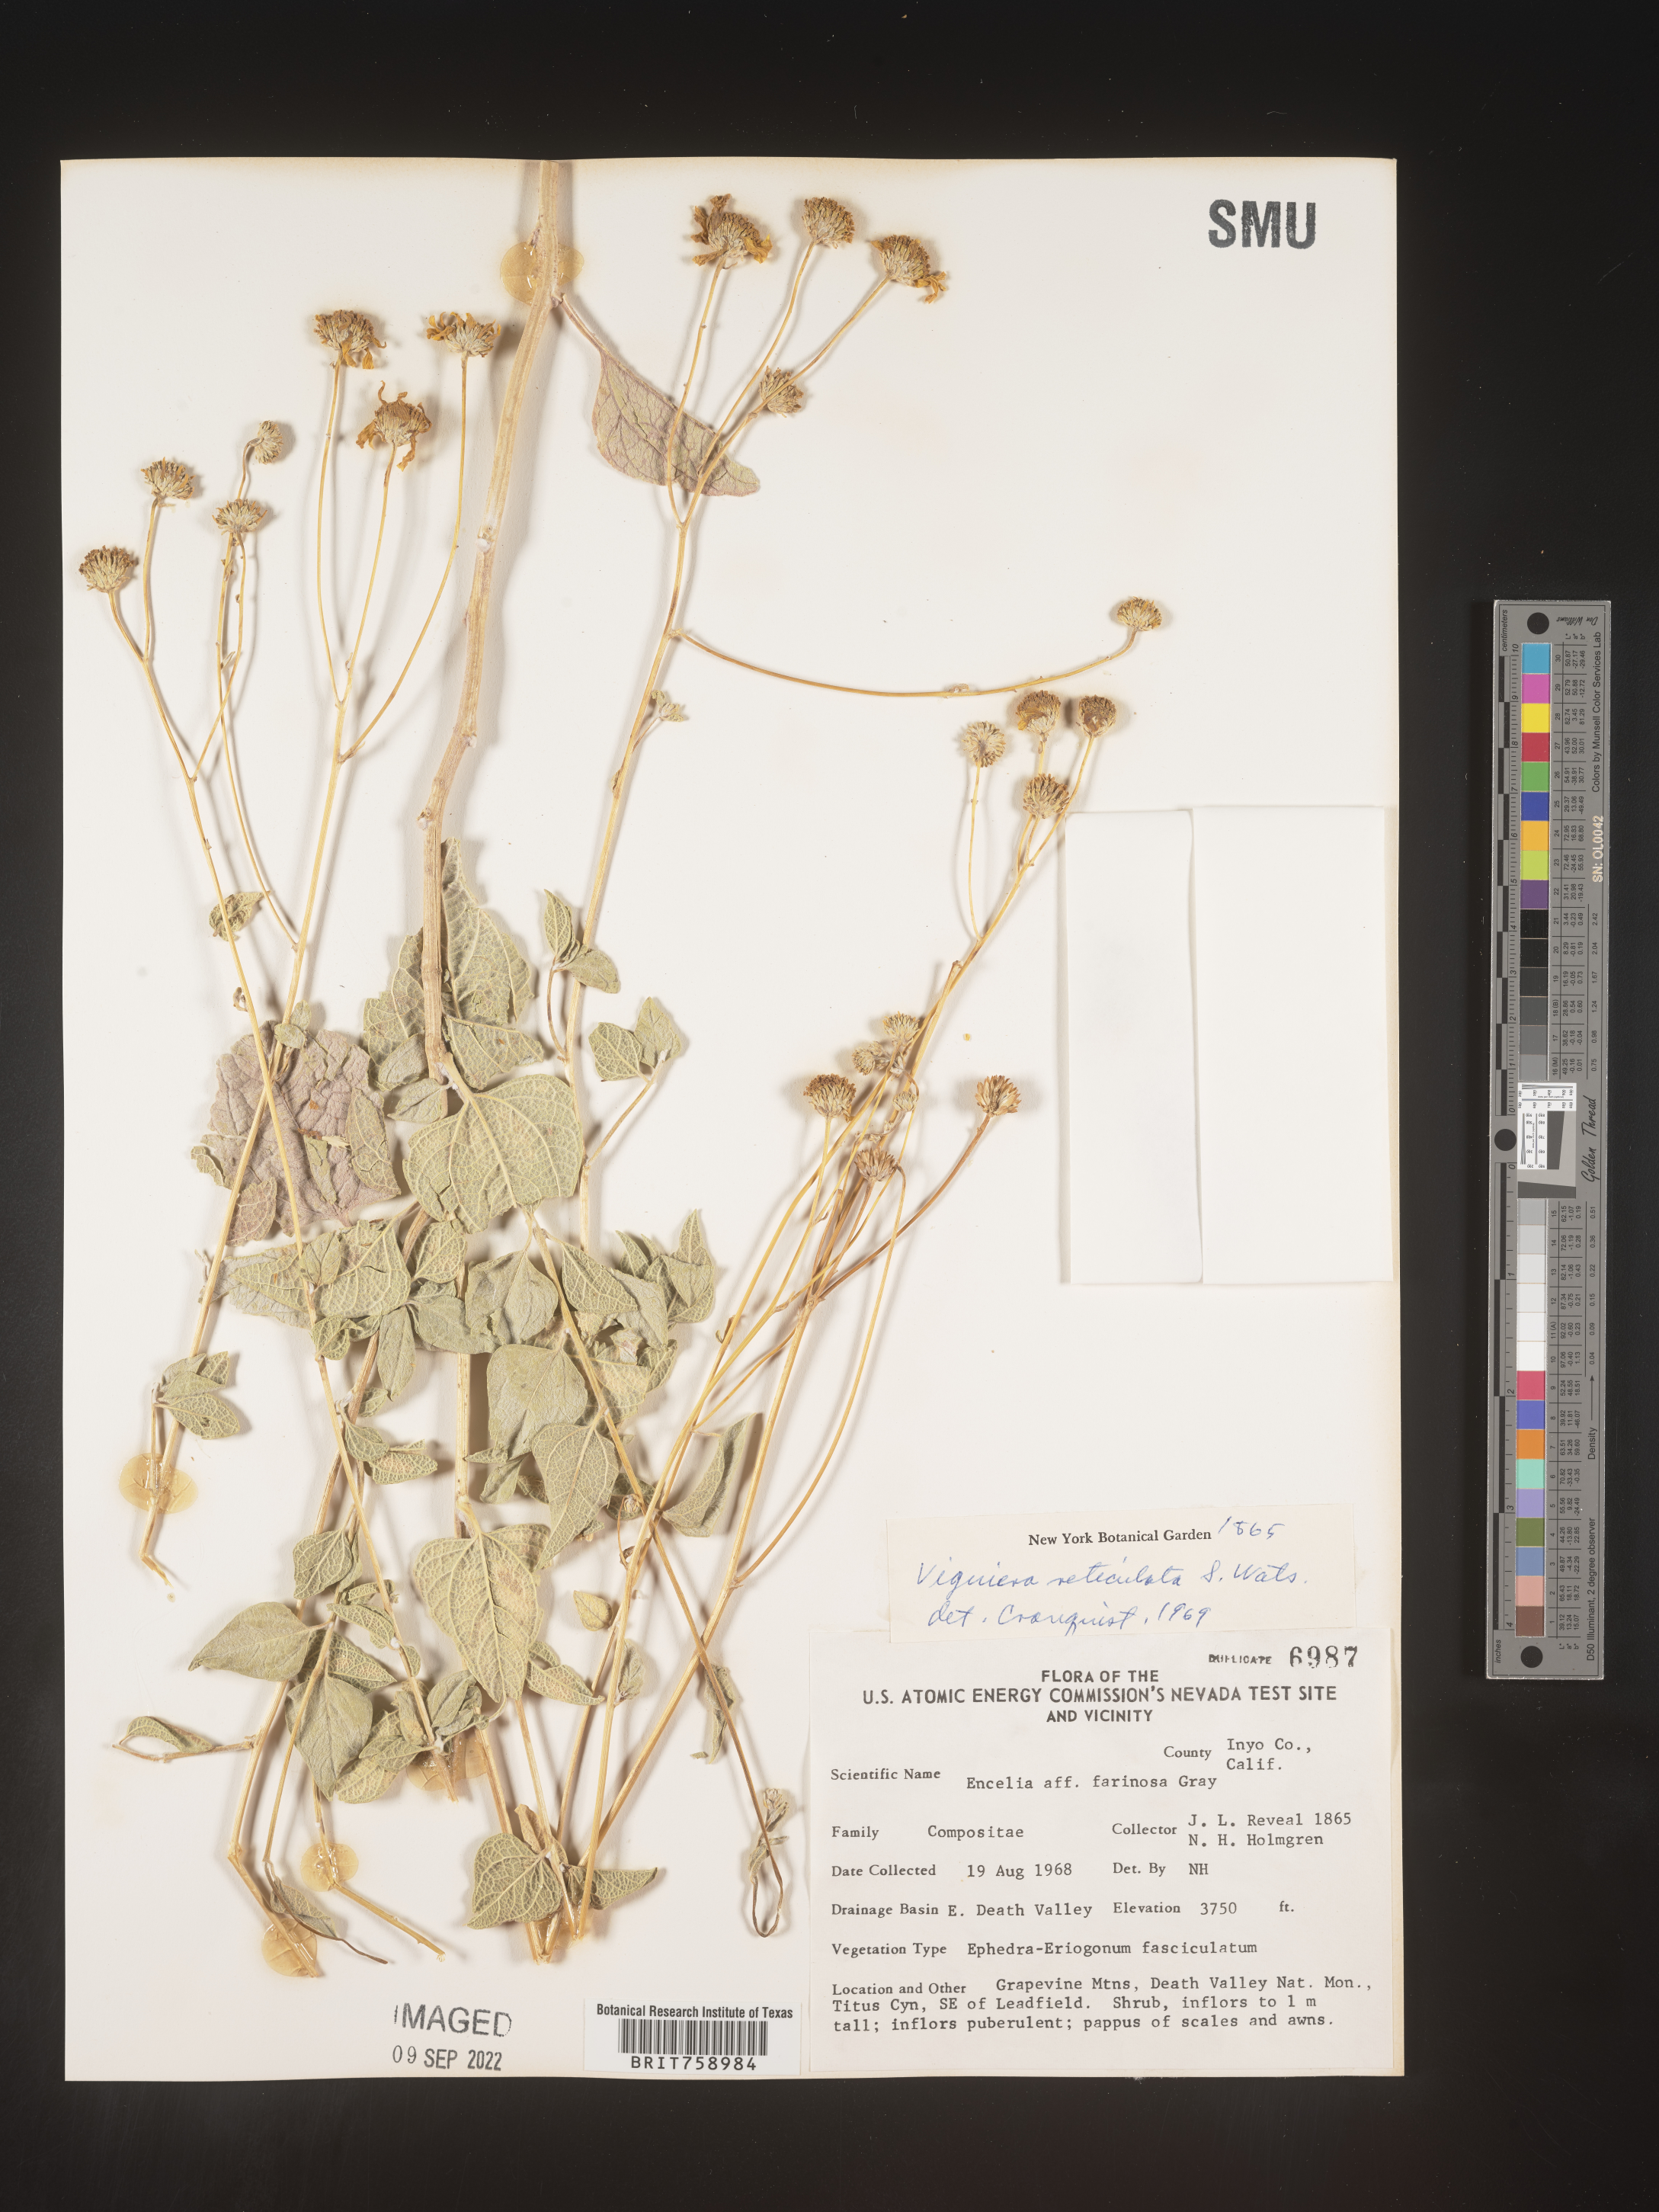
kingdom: Plantae
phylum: Tracheophyta
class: Magnoliopsida
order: Asterales
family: Asteraceae
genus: Viguiera
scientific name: Viguiera
